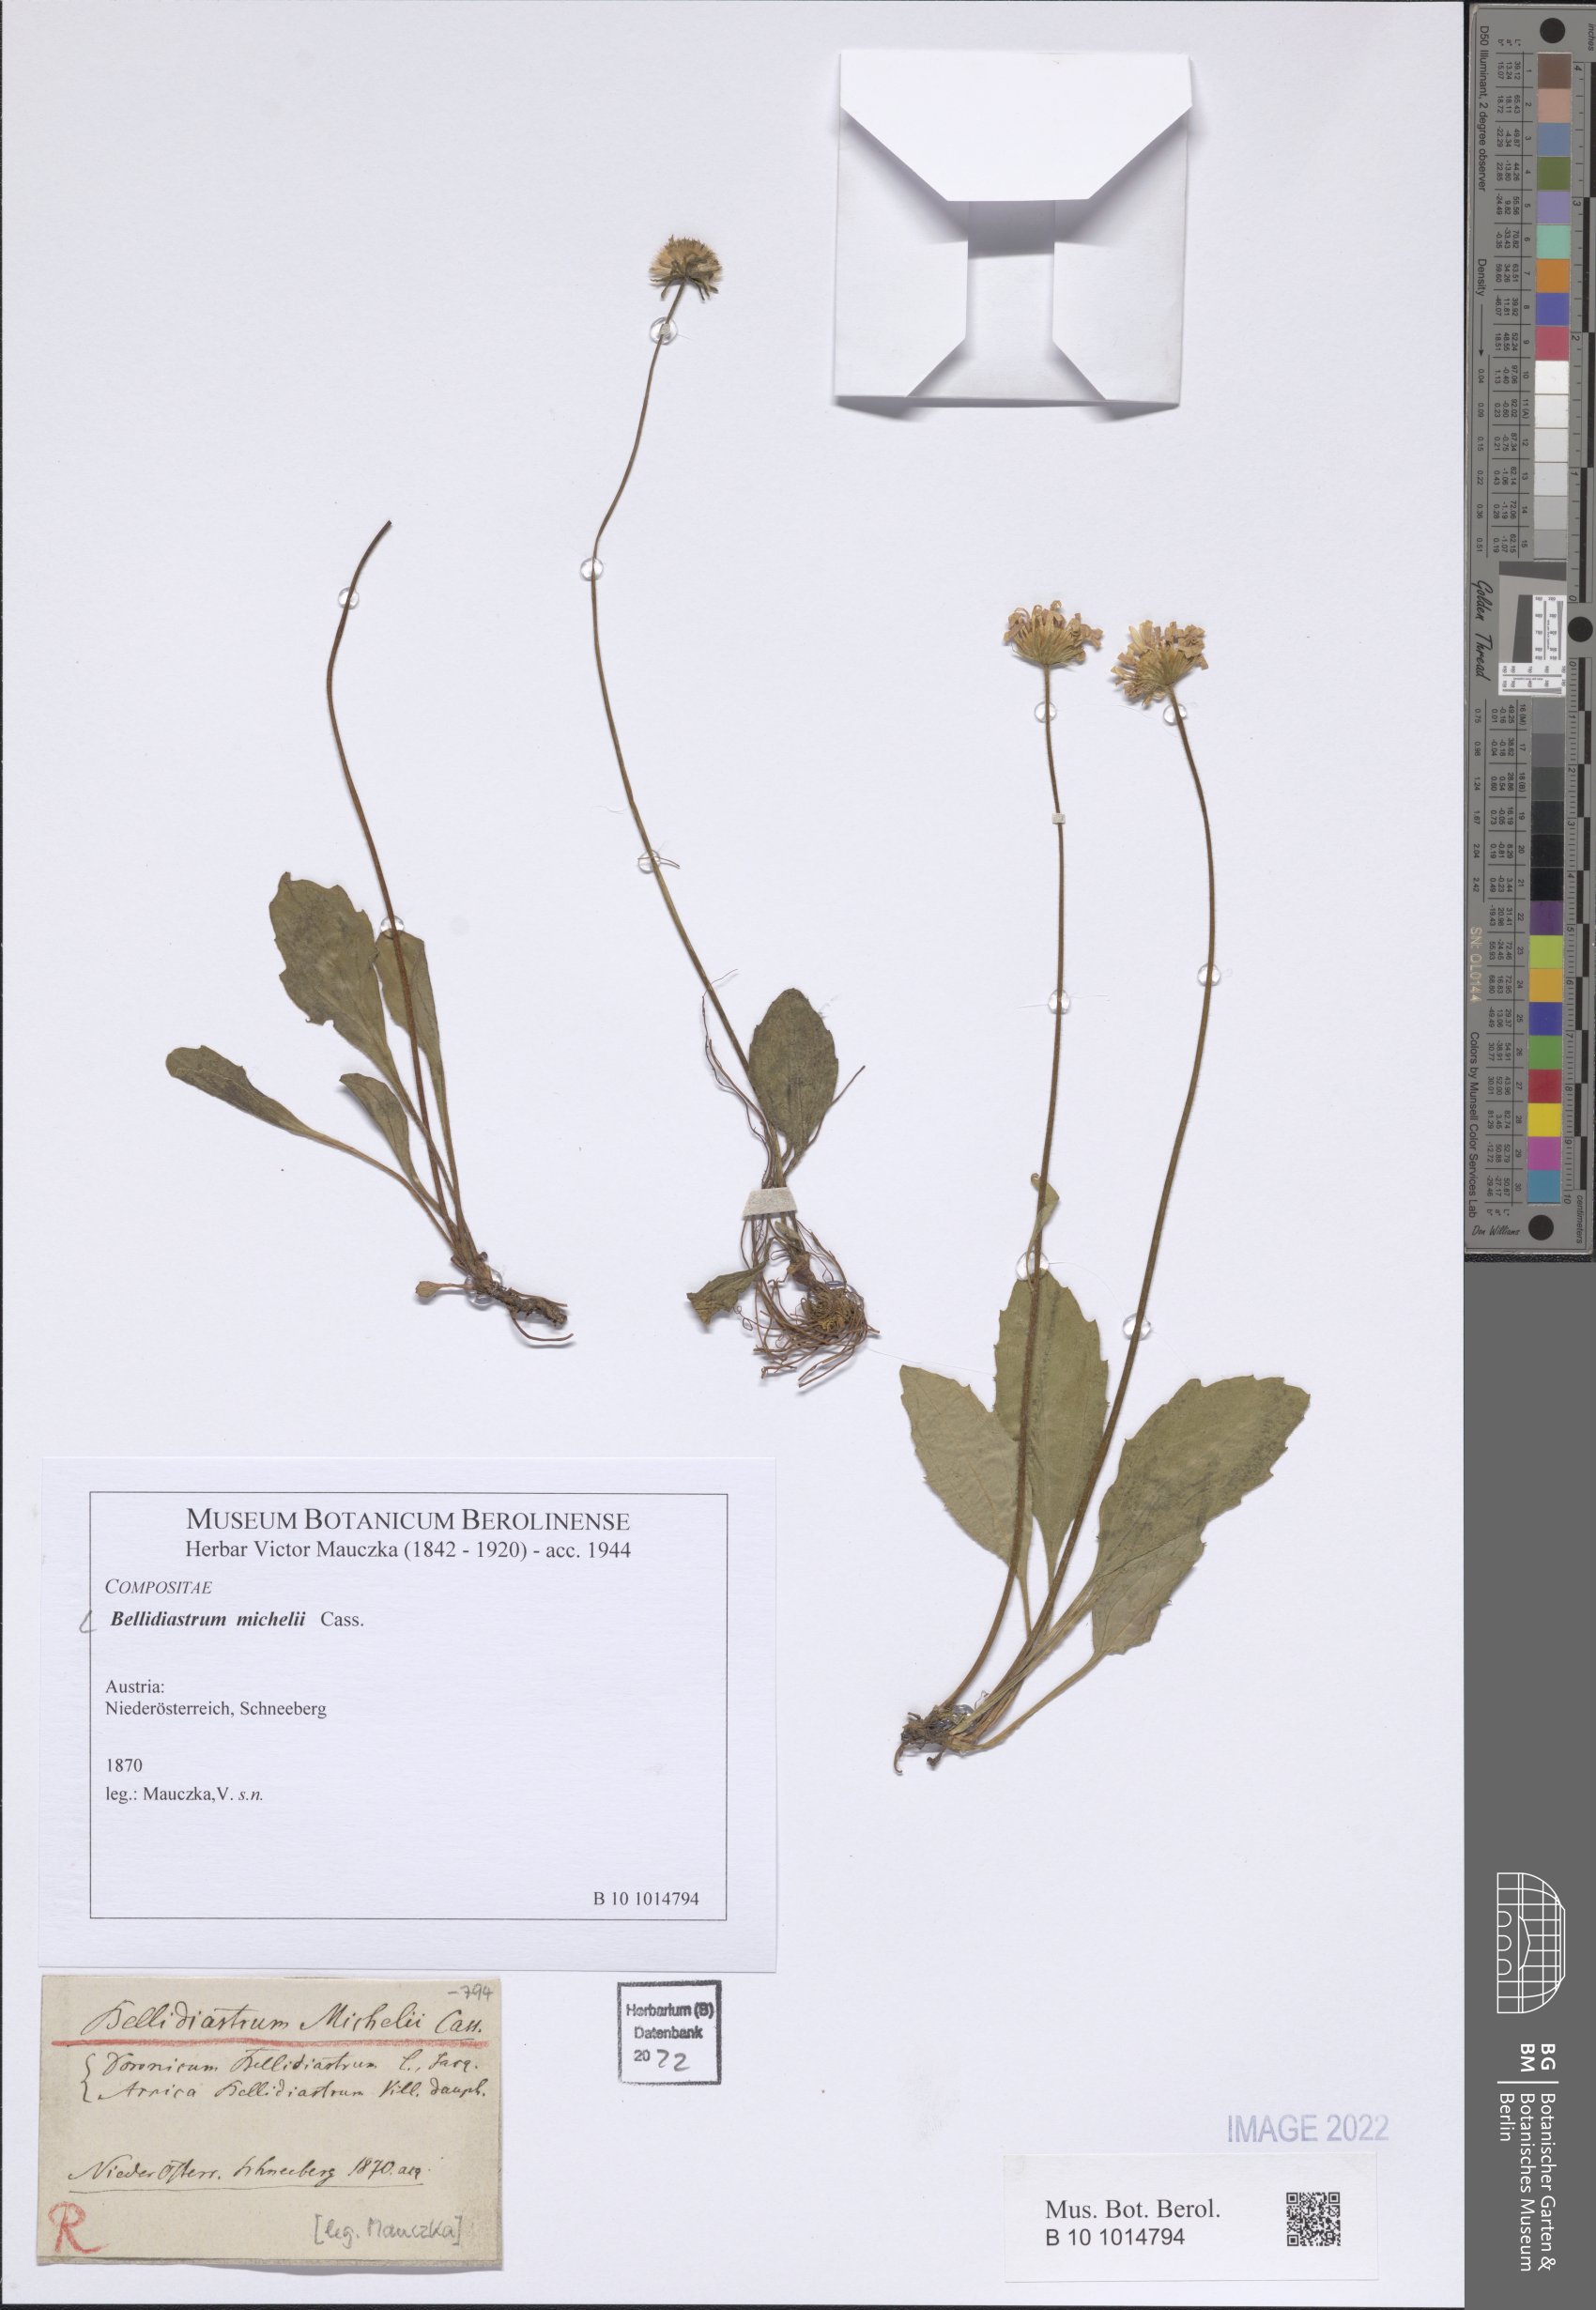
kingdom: Plantae
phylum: Tracheophyta
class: Magnoliopsida
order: Asterales
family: Asteraceae
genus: Bellidiastrum
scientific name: Bellidiastrum michelii
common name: Daisy-star aster
